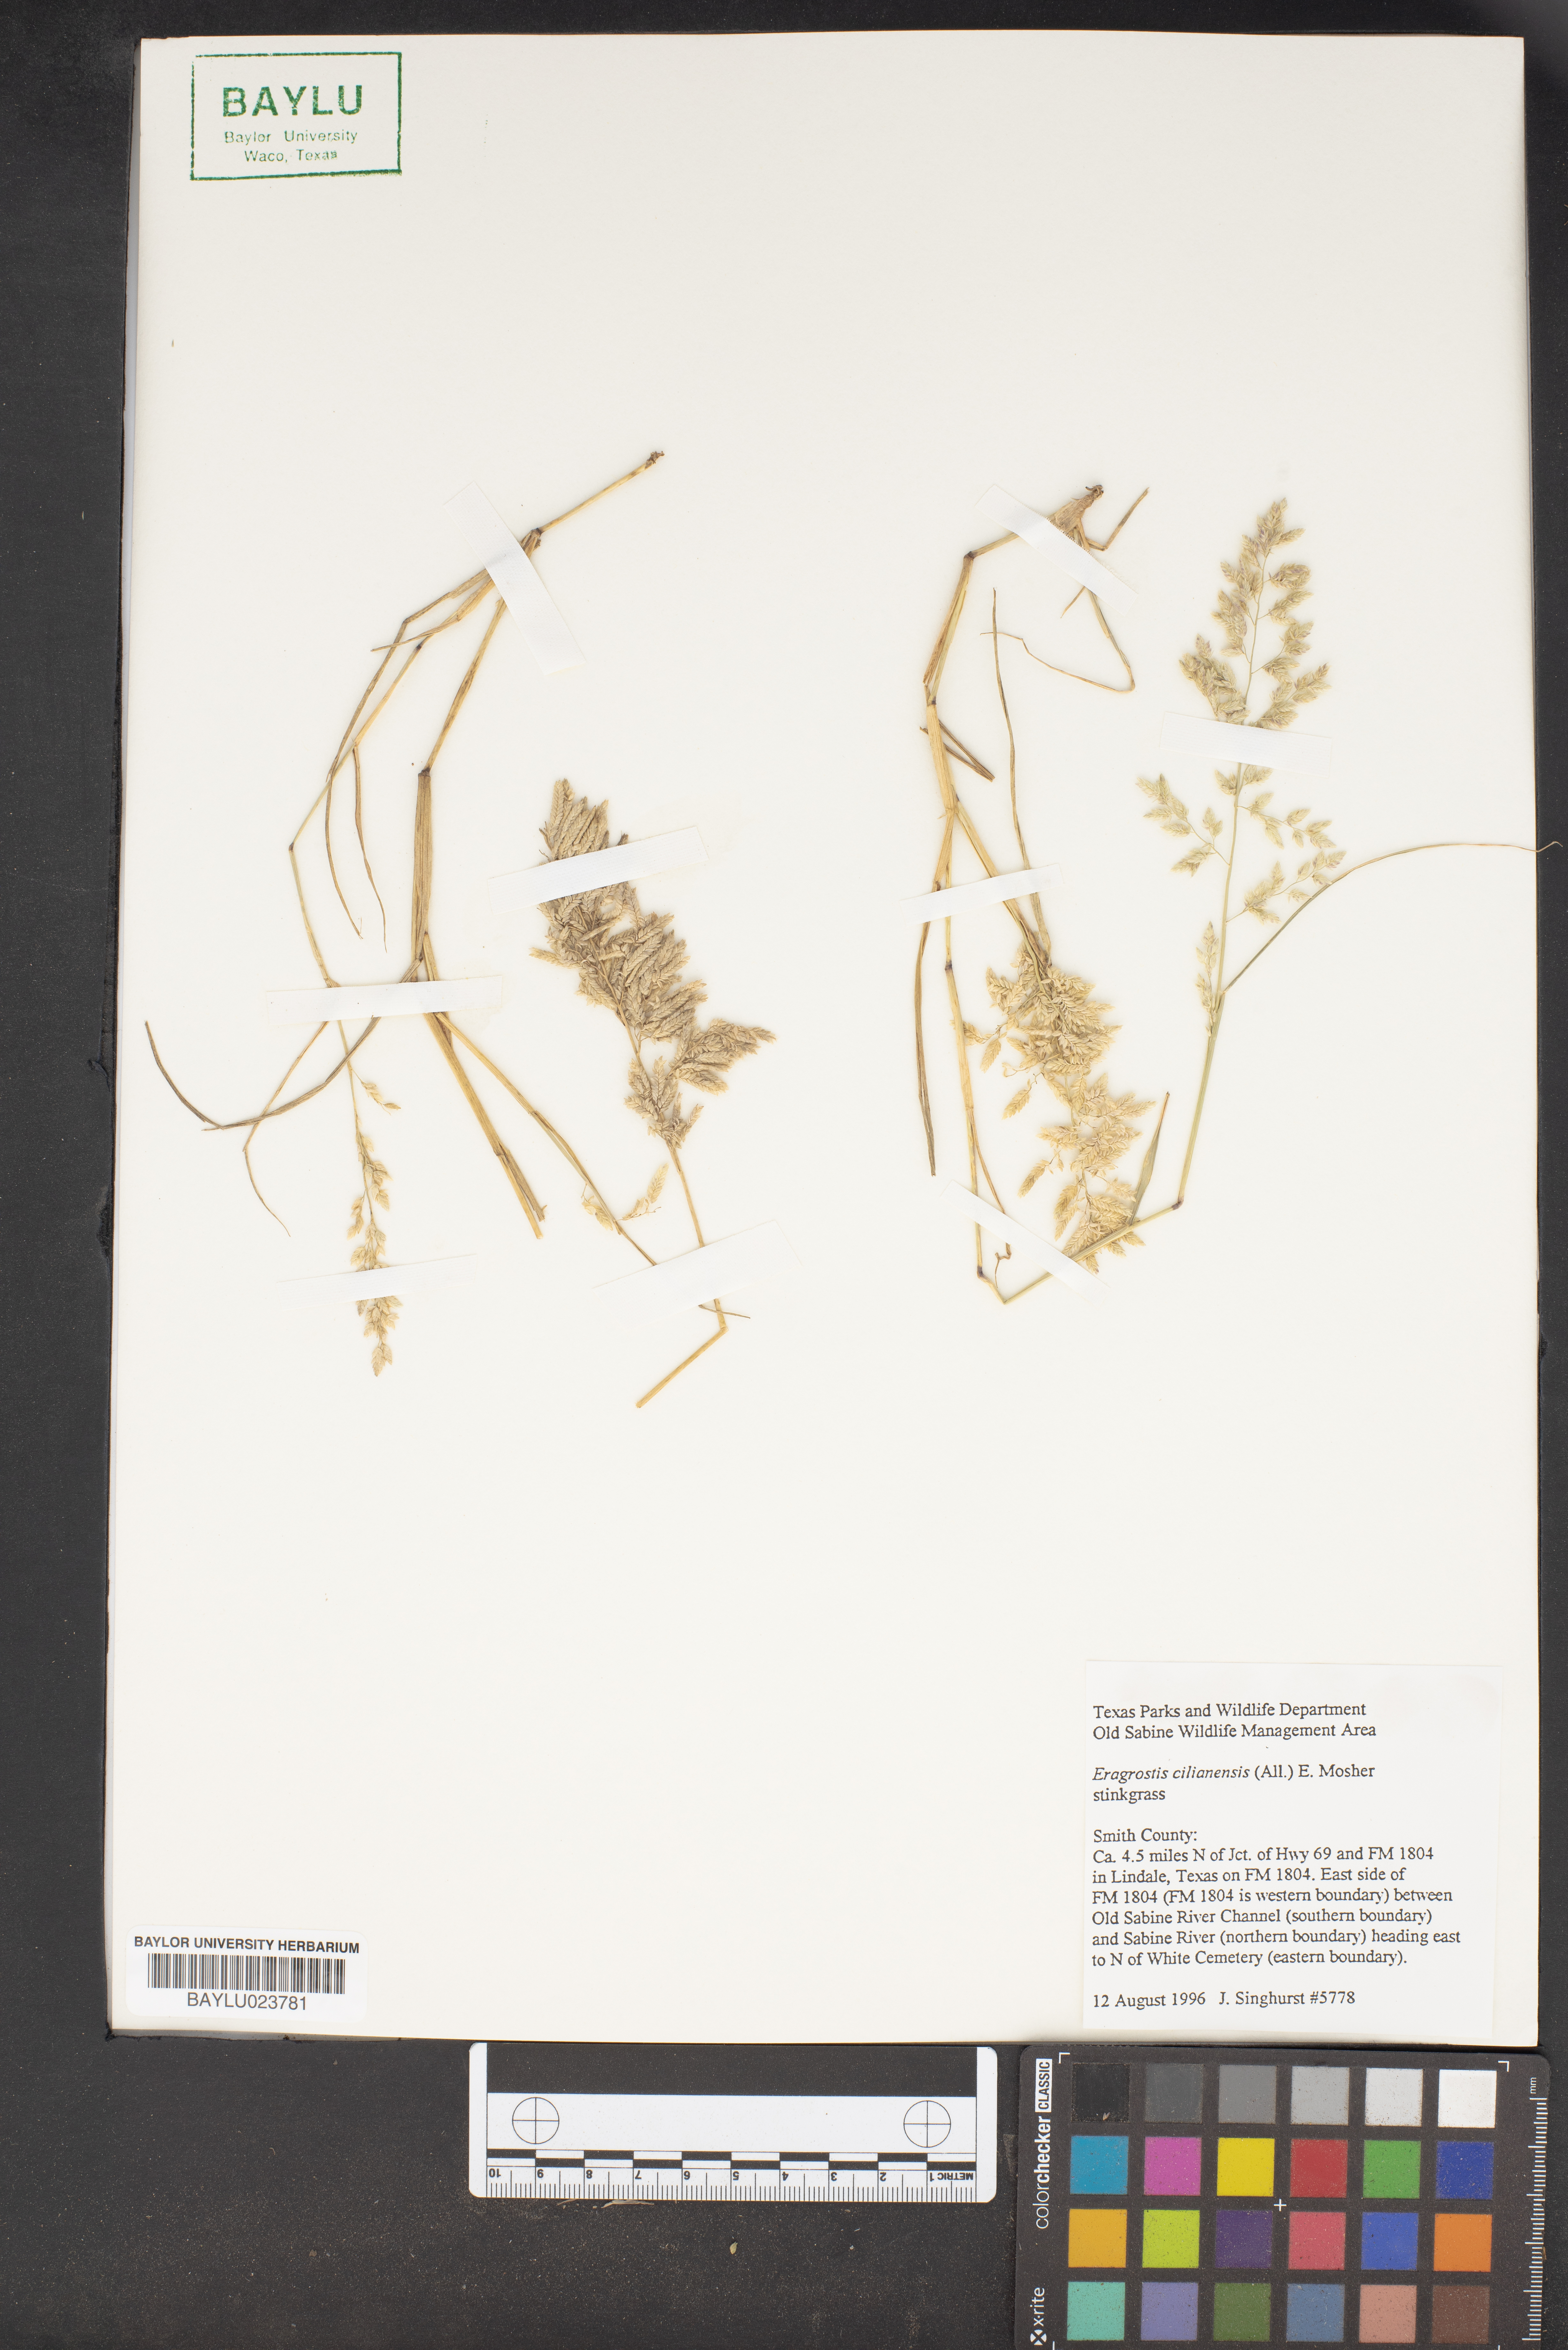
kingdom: Plantae
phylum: Tracheophyta
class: Liliopsida
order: Poales
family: Poaceae
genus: Eragrostis
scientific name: Eragrostis cilianensis
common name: Stinkgrass
